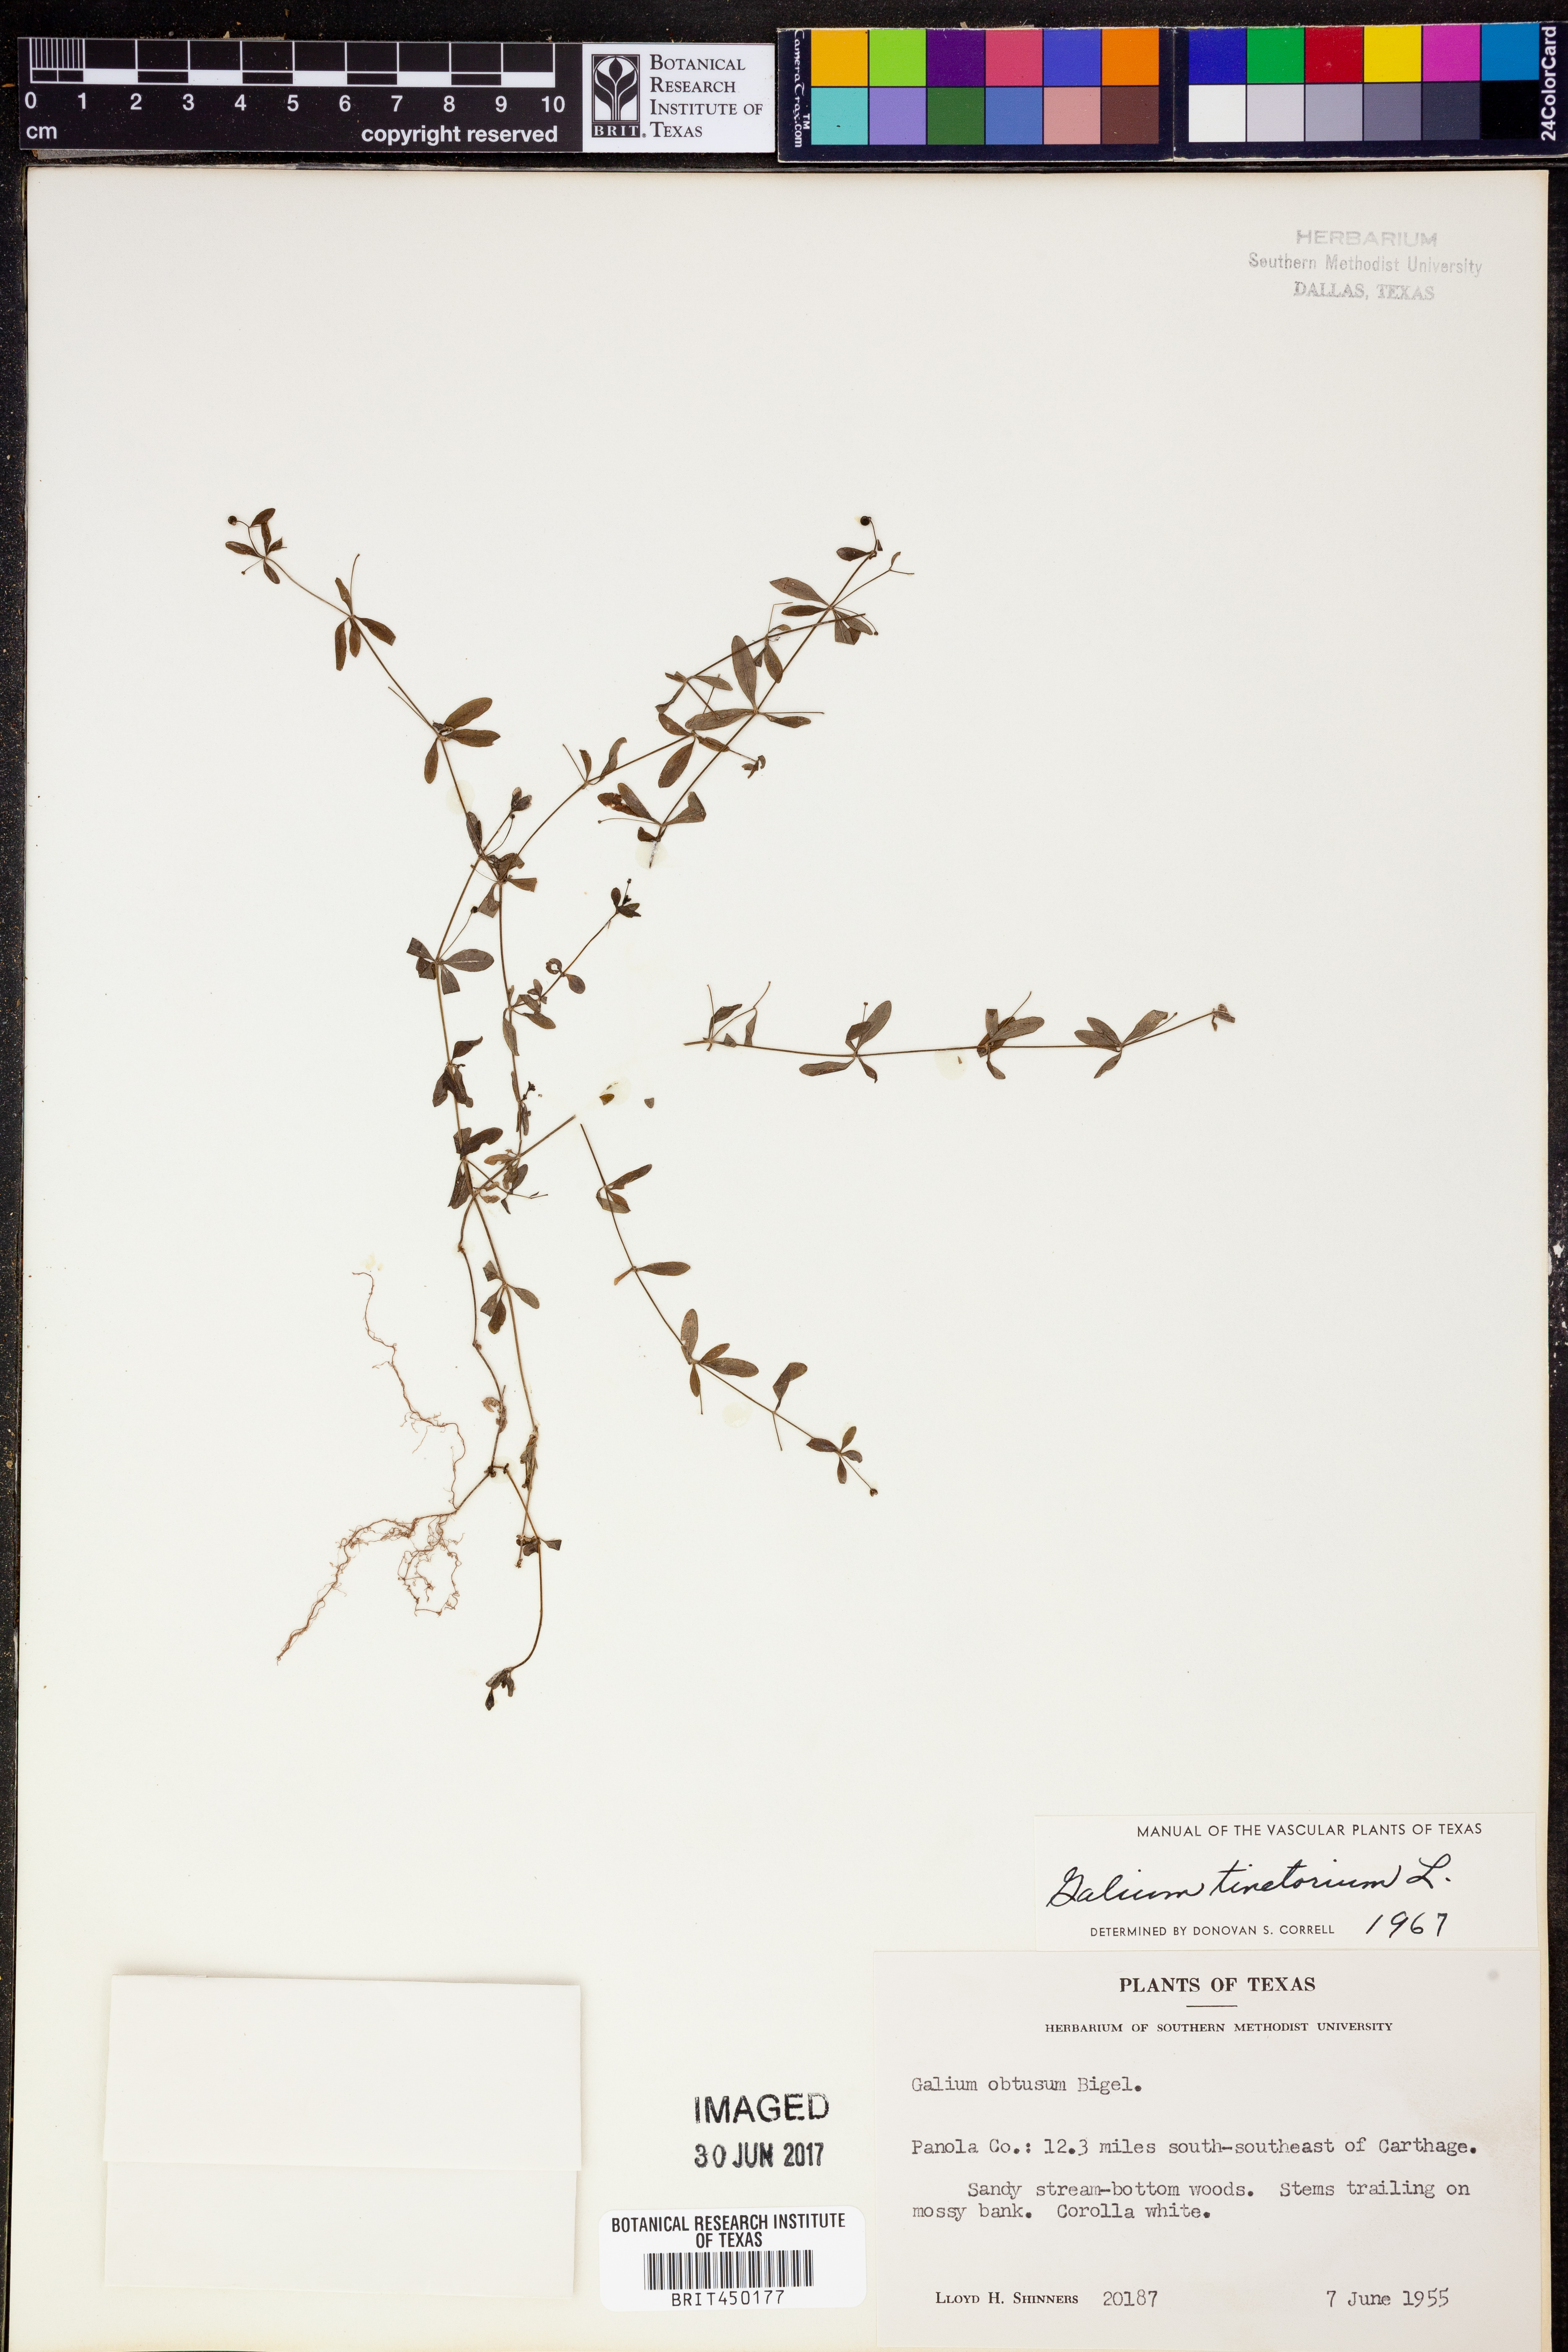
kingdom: Plantae
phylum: Tracheophyta
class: Magnoliopsida
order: Gentianales
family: Rubiaceae
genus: Asperula
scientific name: Asperula tinctoria
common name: Dyer's woodruff
